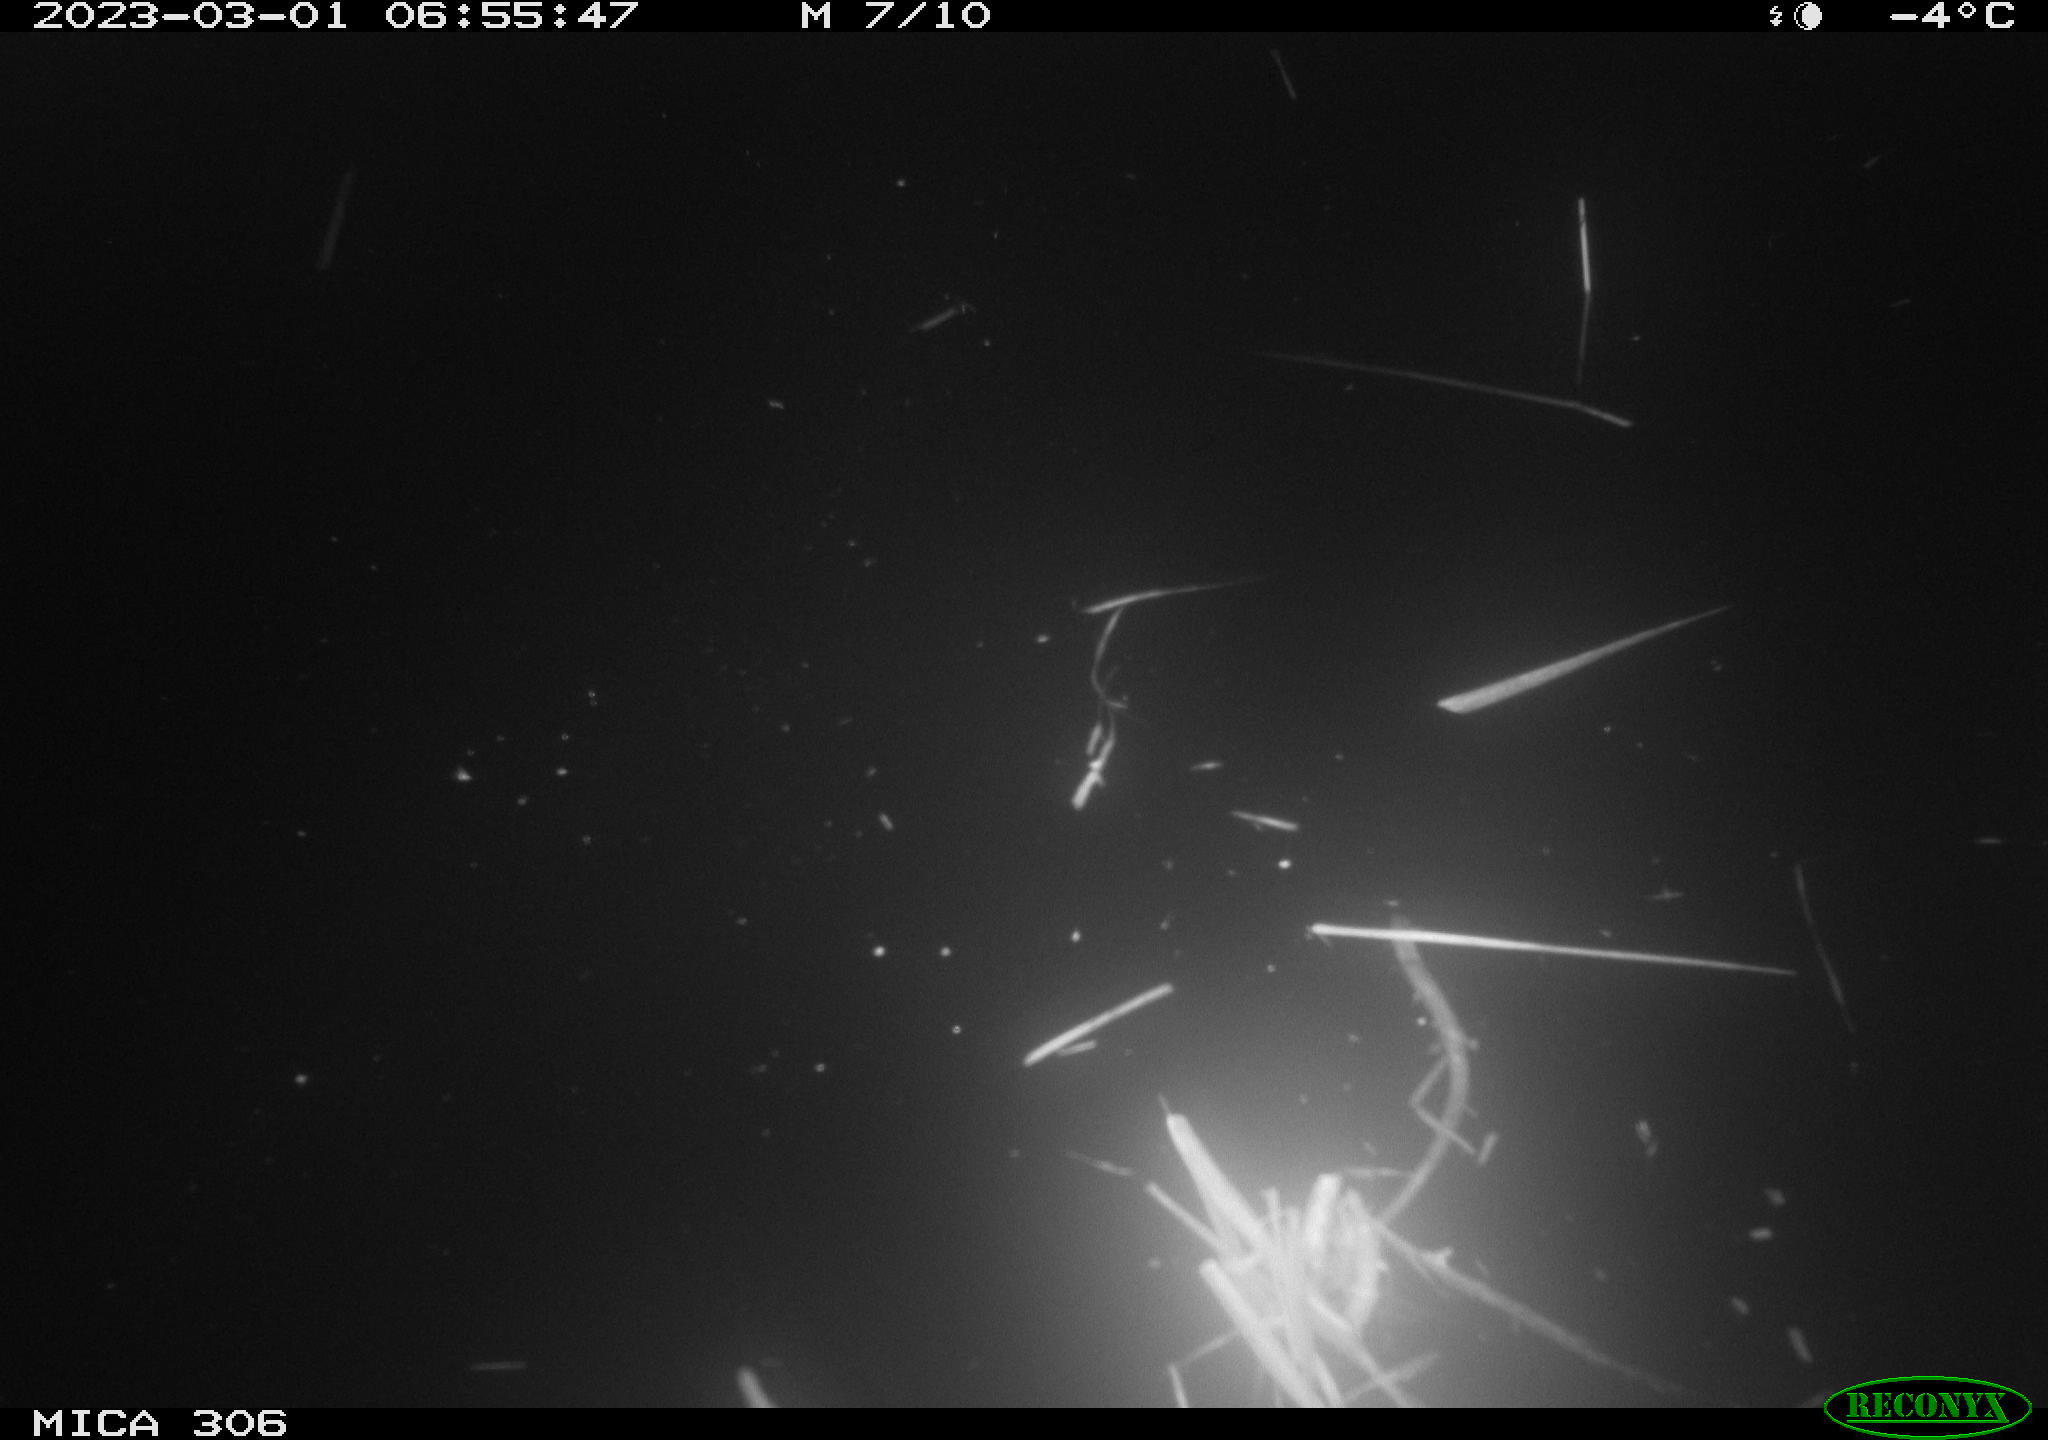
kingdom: Animalia
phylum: Chordata
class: Aves
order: Anseriformes
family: Anatidae
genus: Anas
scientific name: Anas
